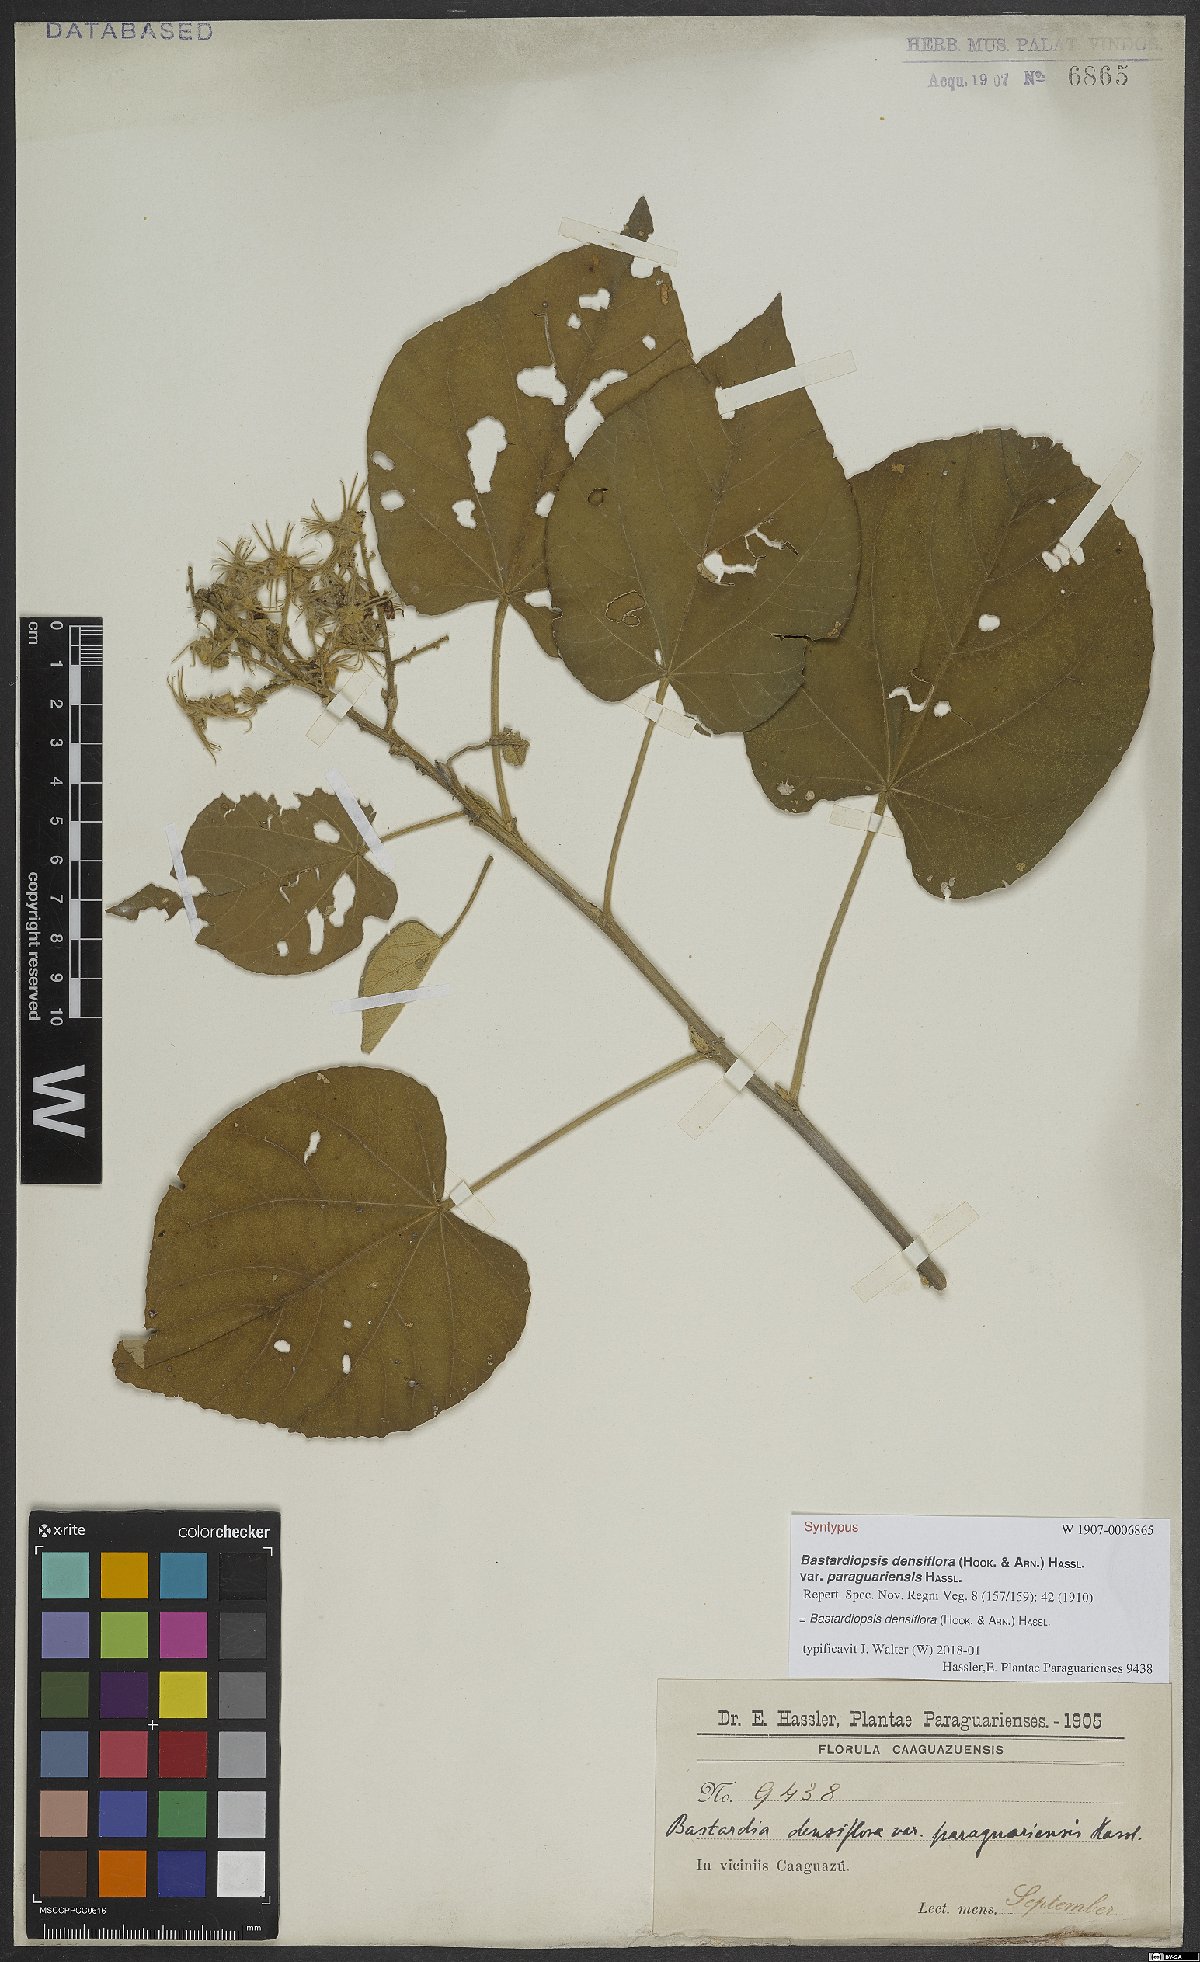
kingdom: Plantae
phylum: Tracheophyta
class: Magnoliopsida
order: Malvales
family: Malvaceae
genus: Bastardiopsis
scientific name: Bastardiopsis densiflora
